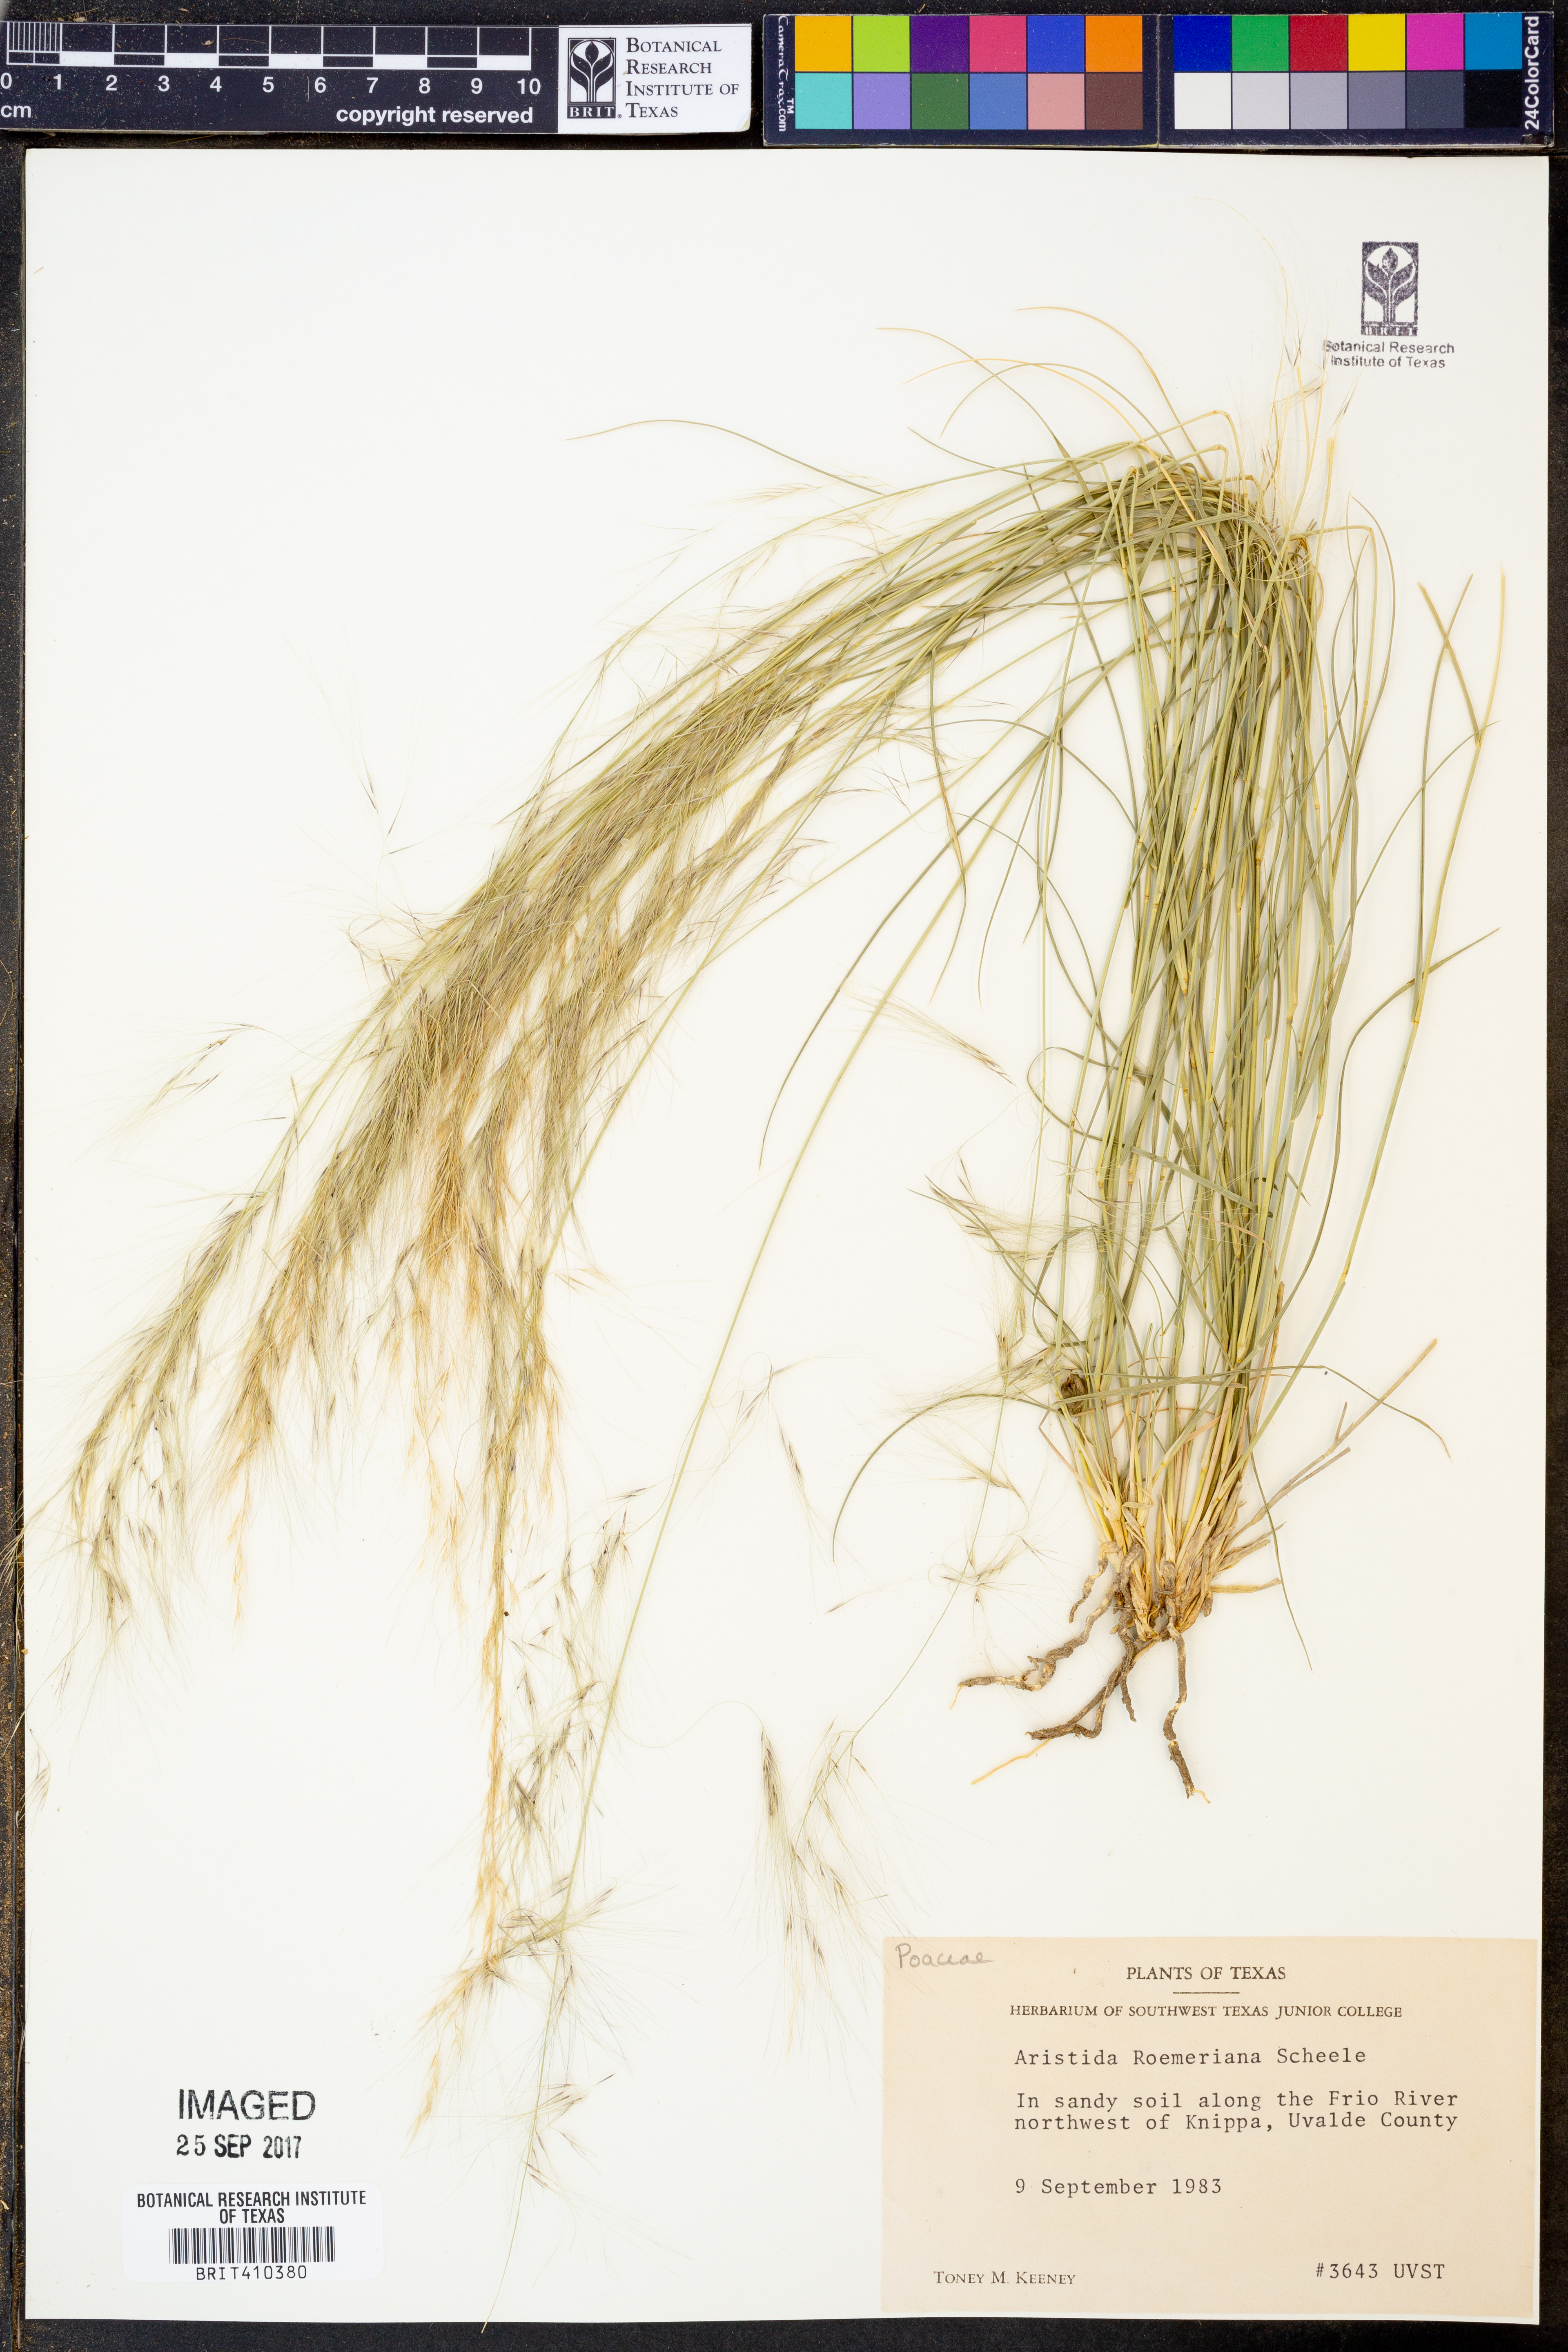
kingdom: Plantae
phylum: Tracheophyta
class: Liliopsida
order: Poales
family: Poaceae
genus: Aristida
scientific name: Aristida purpurea
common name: Purple threeawn
